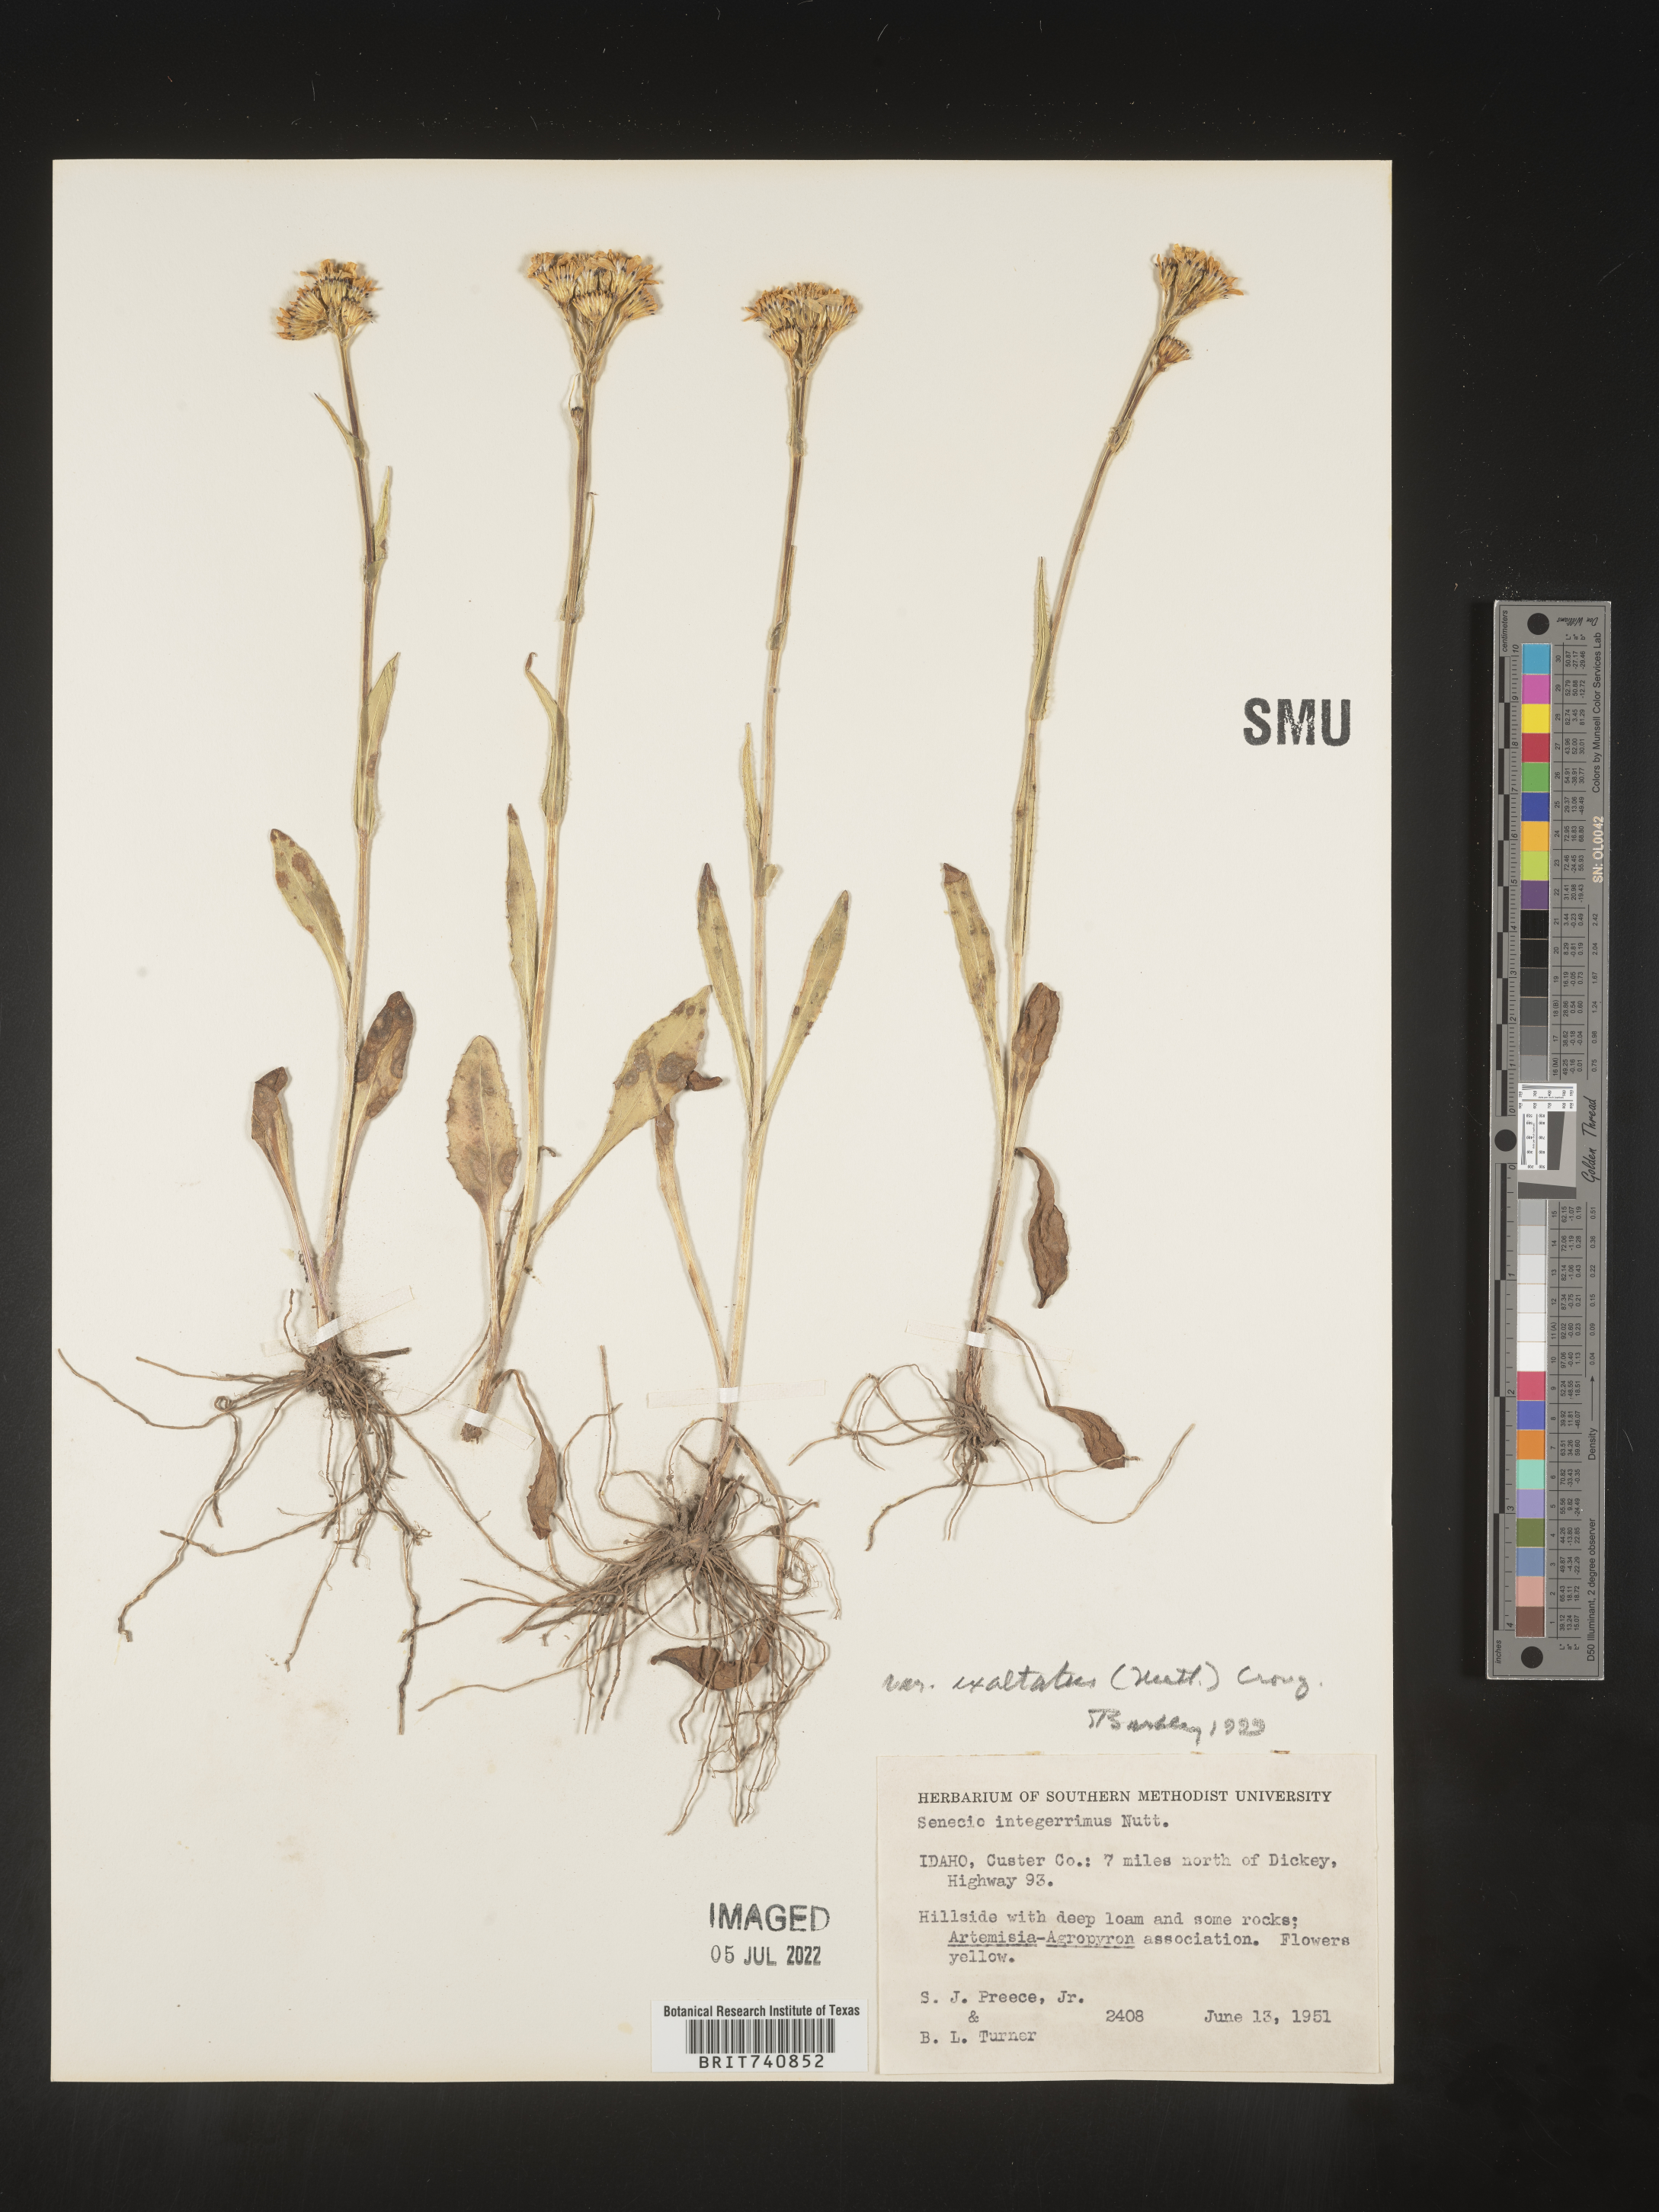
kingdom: Plantae
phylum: Tracheophyta
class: Magnoliopsida
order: Asterales
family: Asteraceae
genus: Senecio
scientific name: Senecio integerrimus
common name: Gaugeplant
